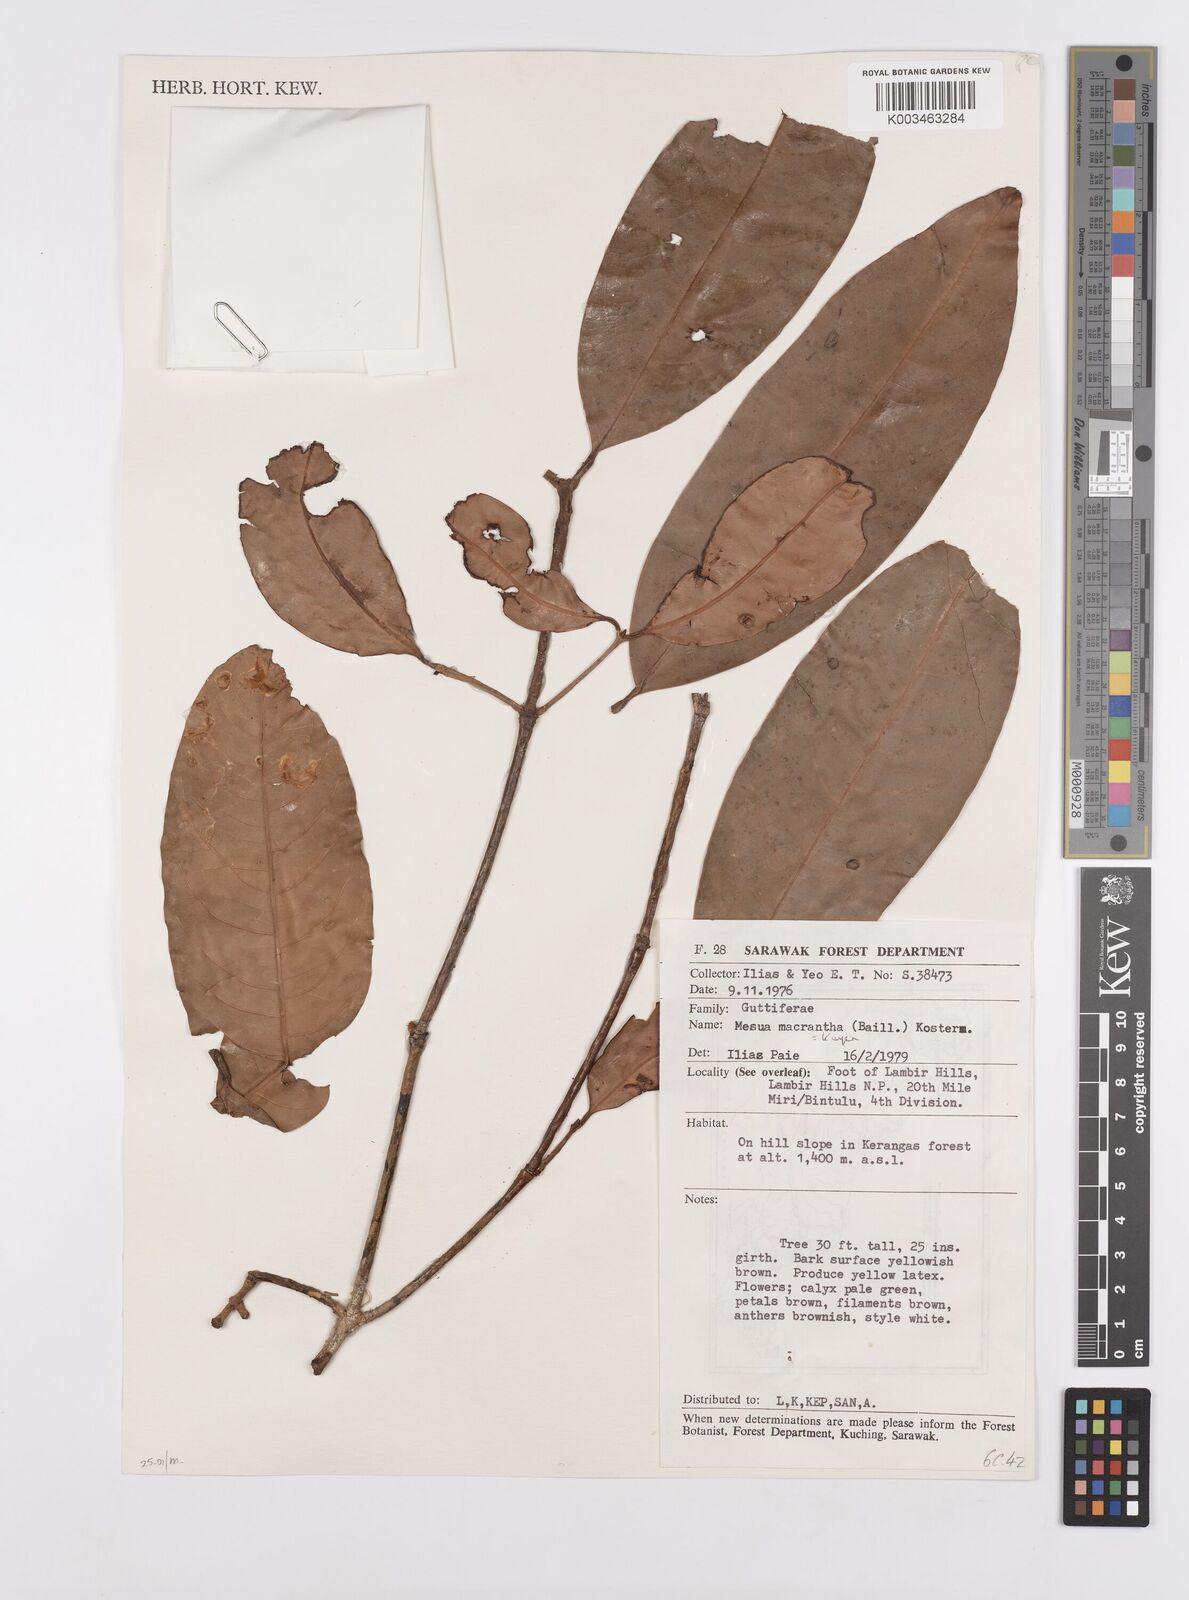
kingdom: Plantae
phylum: Tracheophyta
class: Magnoliopsida
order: Malpighiales
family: Calophyllaceae
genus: Kayea
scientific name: Kayea macrantha
